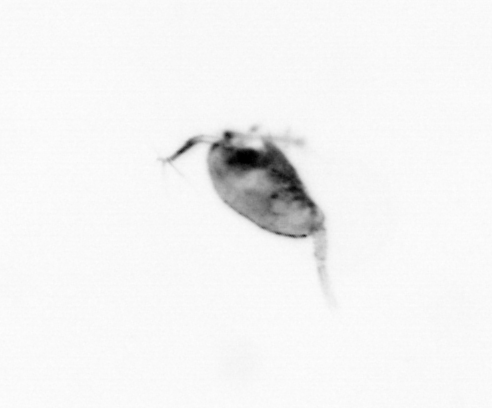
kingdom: Animalia
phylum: Arthropoda
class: Copepoda
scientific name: Copepoda
